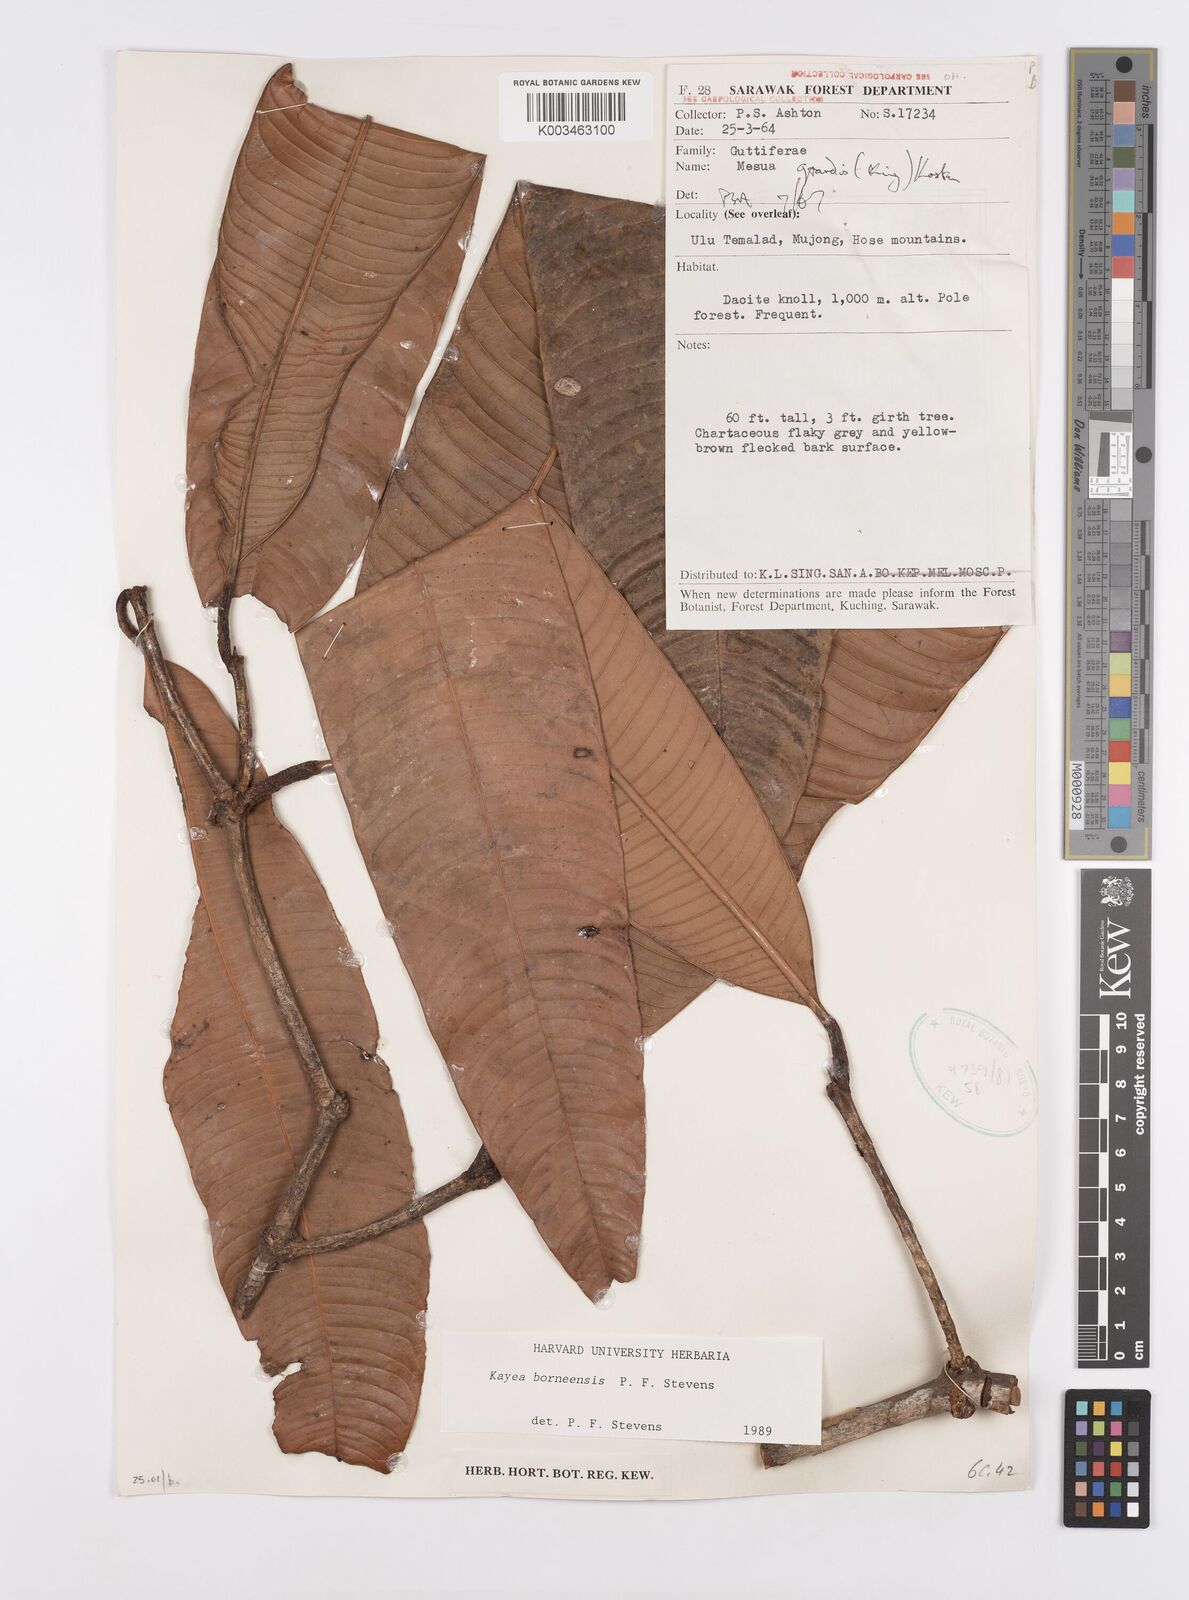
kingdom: Plantae
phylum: Tracheophyta
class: Magnoliopsida
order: Malpighiales
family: Calophyllaceae
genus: Kayea
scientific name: Kayea borneensis
